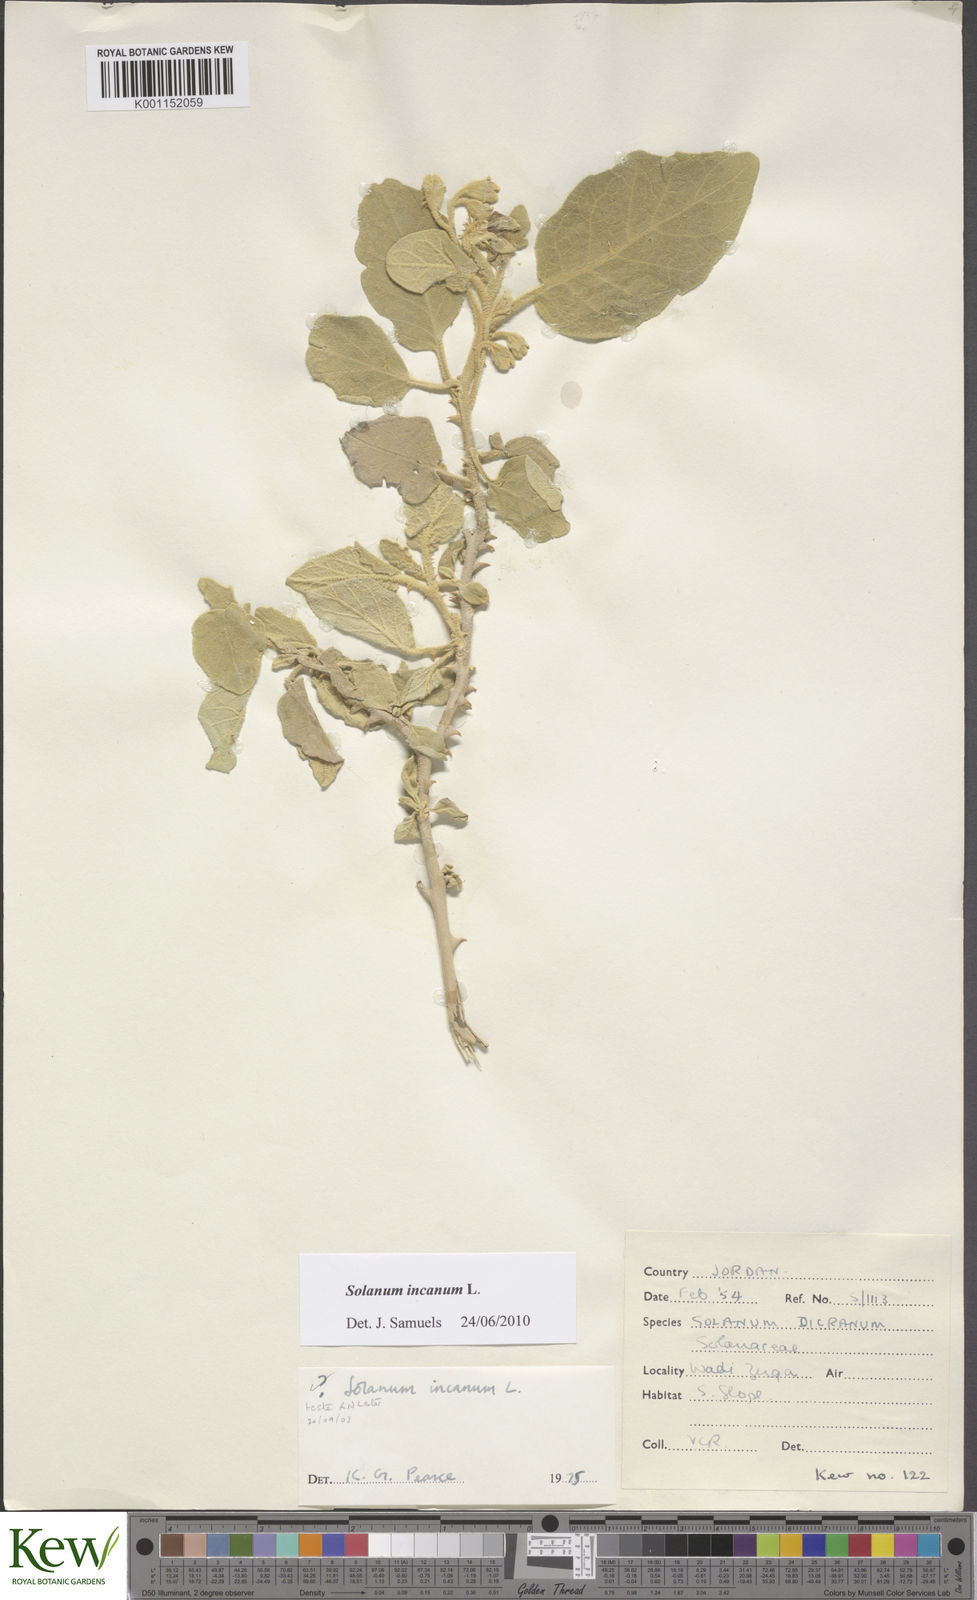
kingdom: Plantae
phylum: Tracheophyta
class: Magnoliopsida
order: Solanales
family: Solanaceae
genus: Solanum
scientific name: Solanum incanum
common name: Bitter apple
